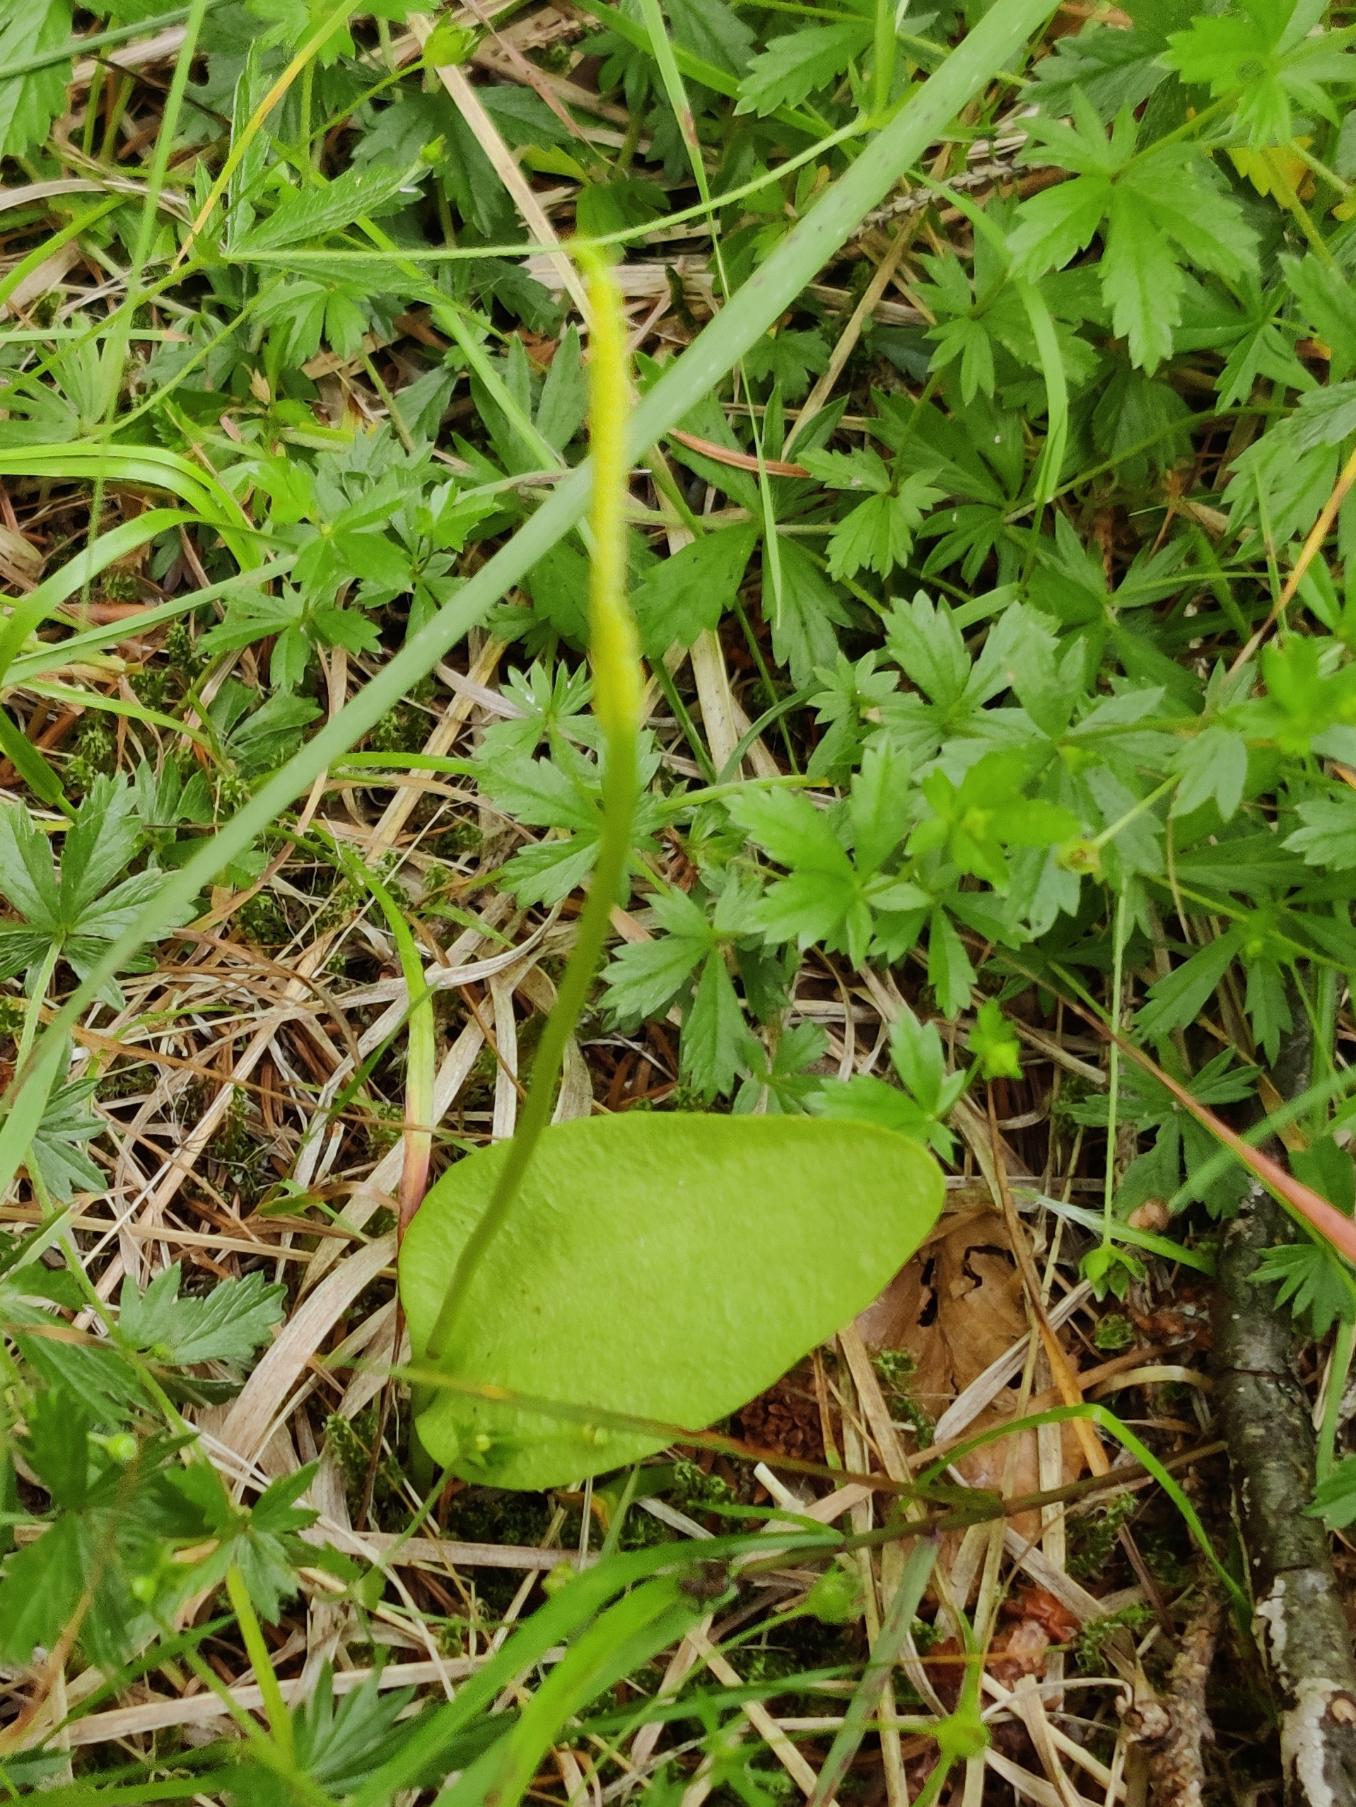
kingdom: Plantae
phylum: Tracheophyta
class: Polypodiopsida
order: Ophioglossales
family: Ophioglossaceae
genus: Ophioglossum
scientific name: Ophioglossum vulgatum
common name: Slangetunge
